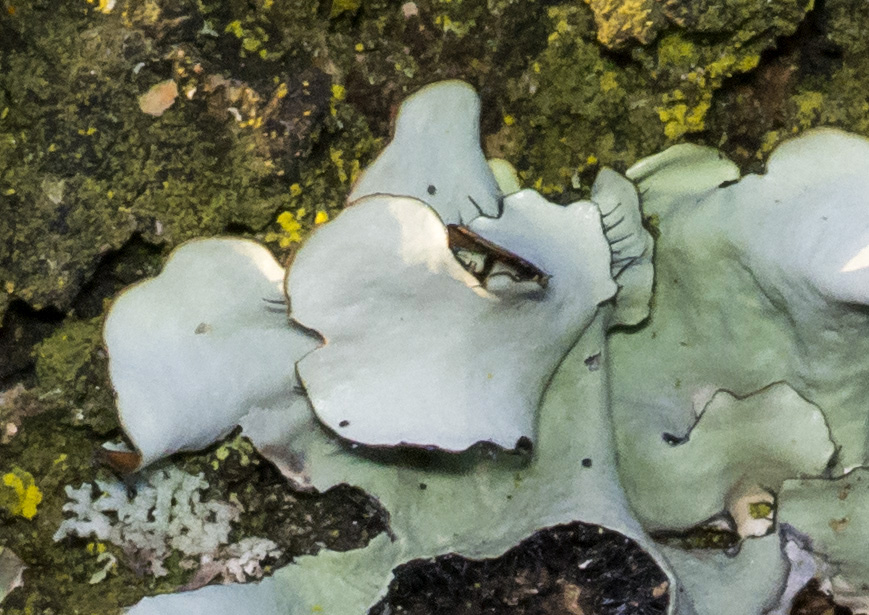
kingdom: Fungi
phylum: Ascomycota
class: Lecanoromycetes
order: Lecanorales
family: Parmeliaceae
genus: Parmotrema
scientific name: Parmotrema perlatum
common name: trådet skållav
